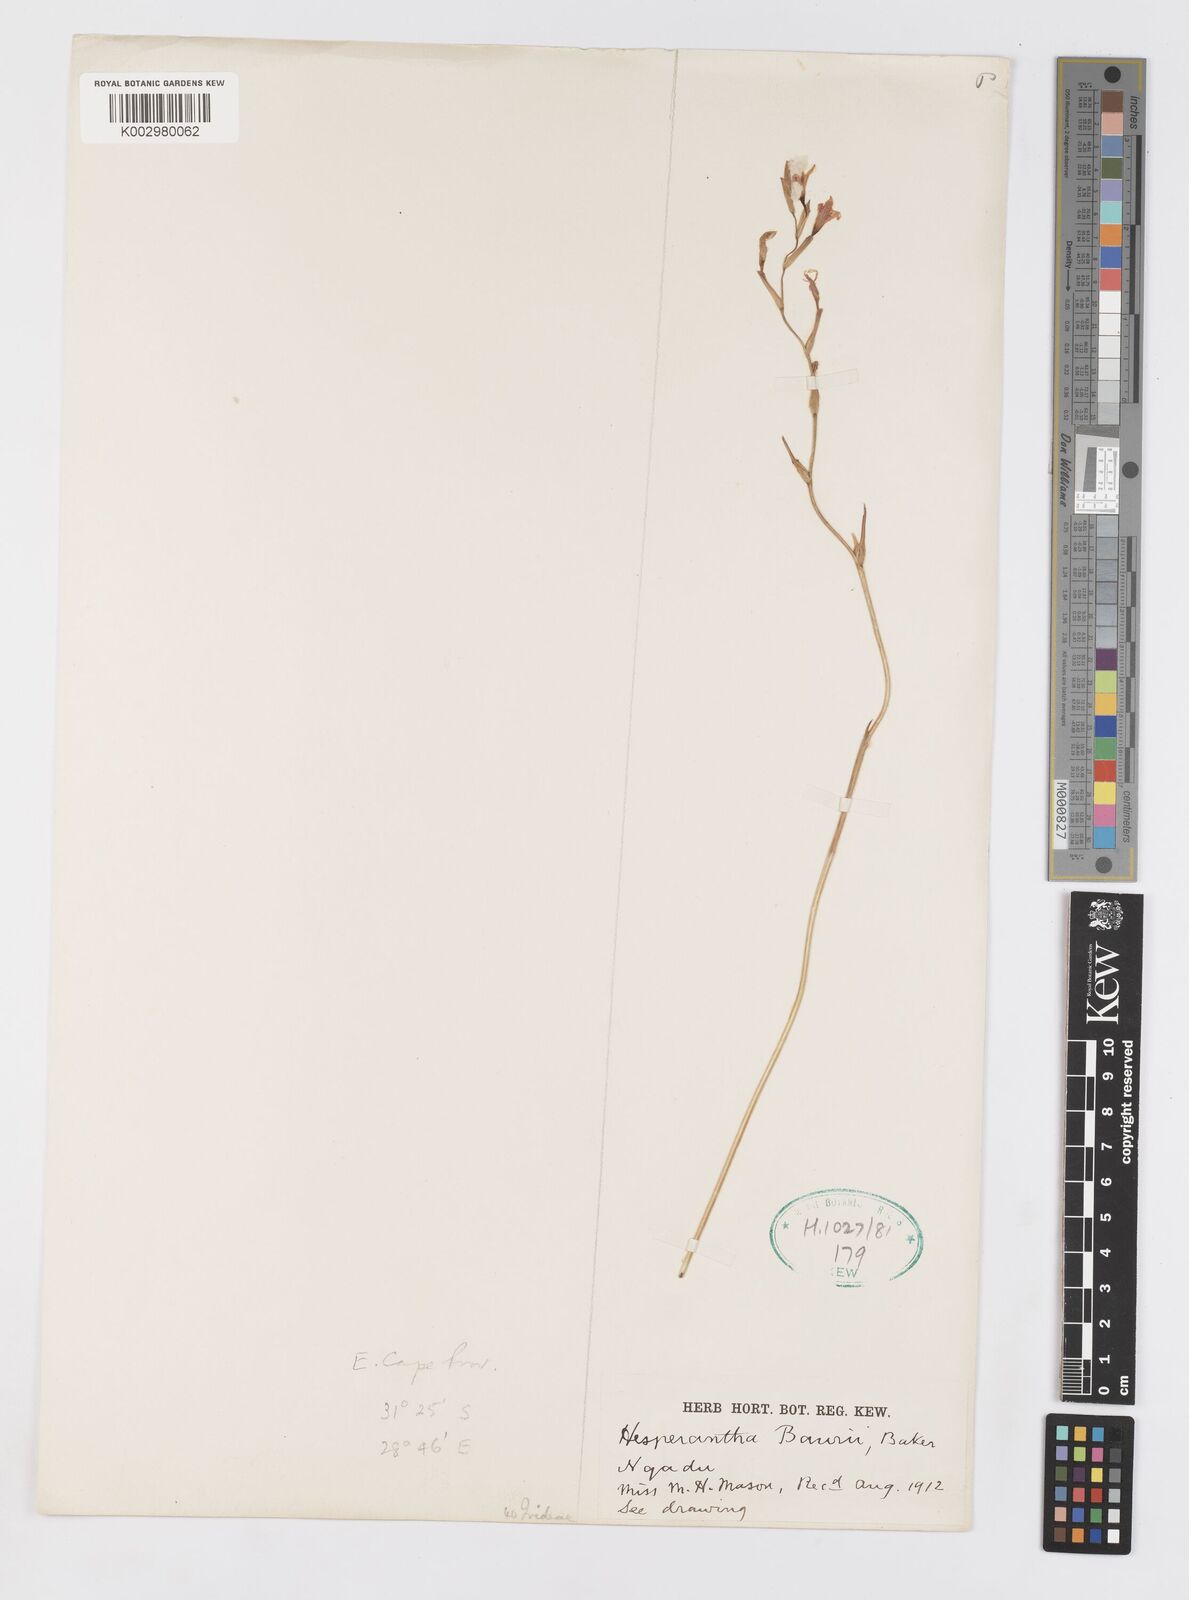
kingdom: Plantae
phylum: Tracheophyta
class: Liliopsida
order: Asparagales
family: Iridaceae
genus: Hesperantha
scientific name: Hesperantha baurii
